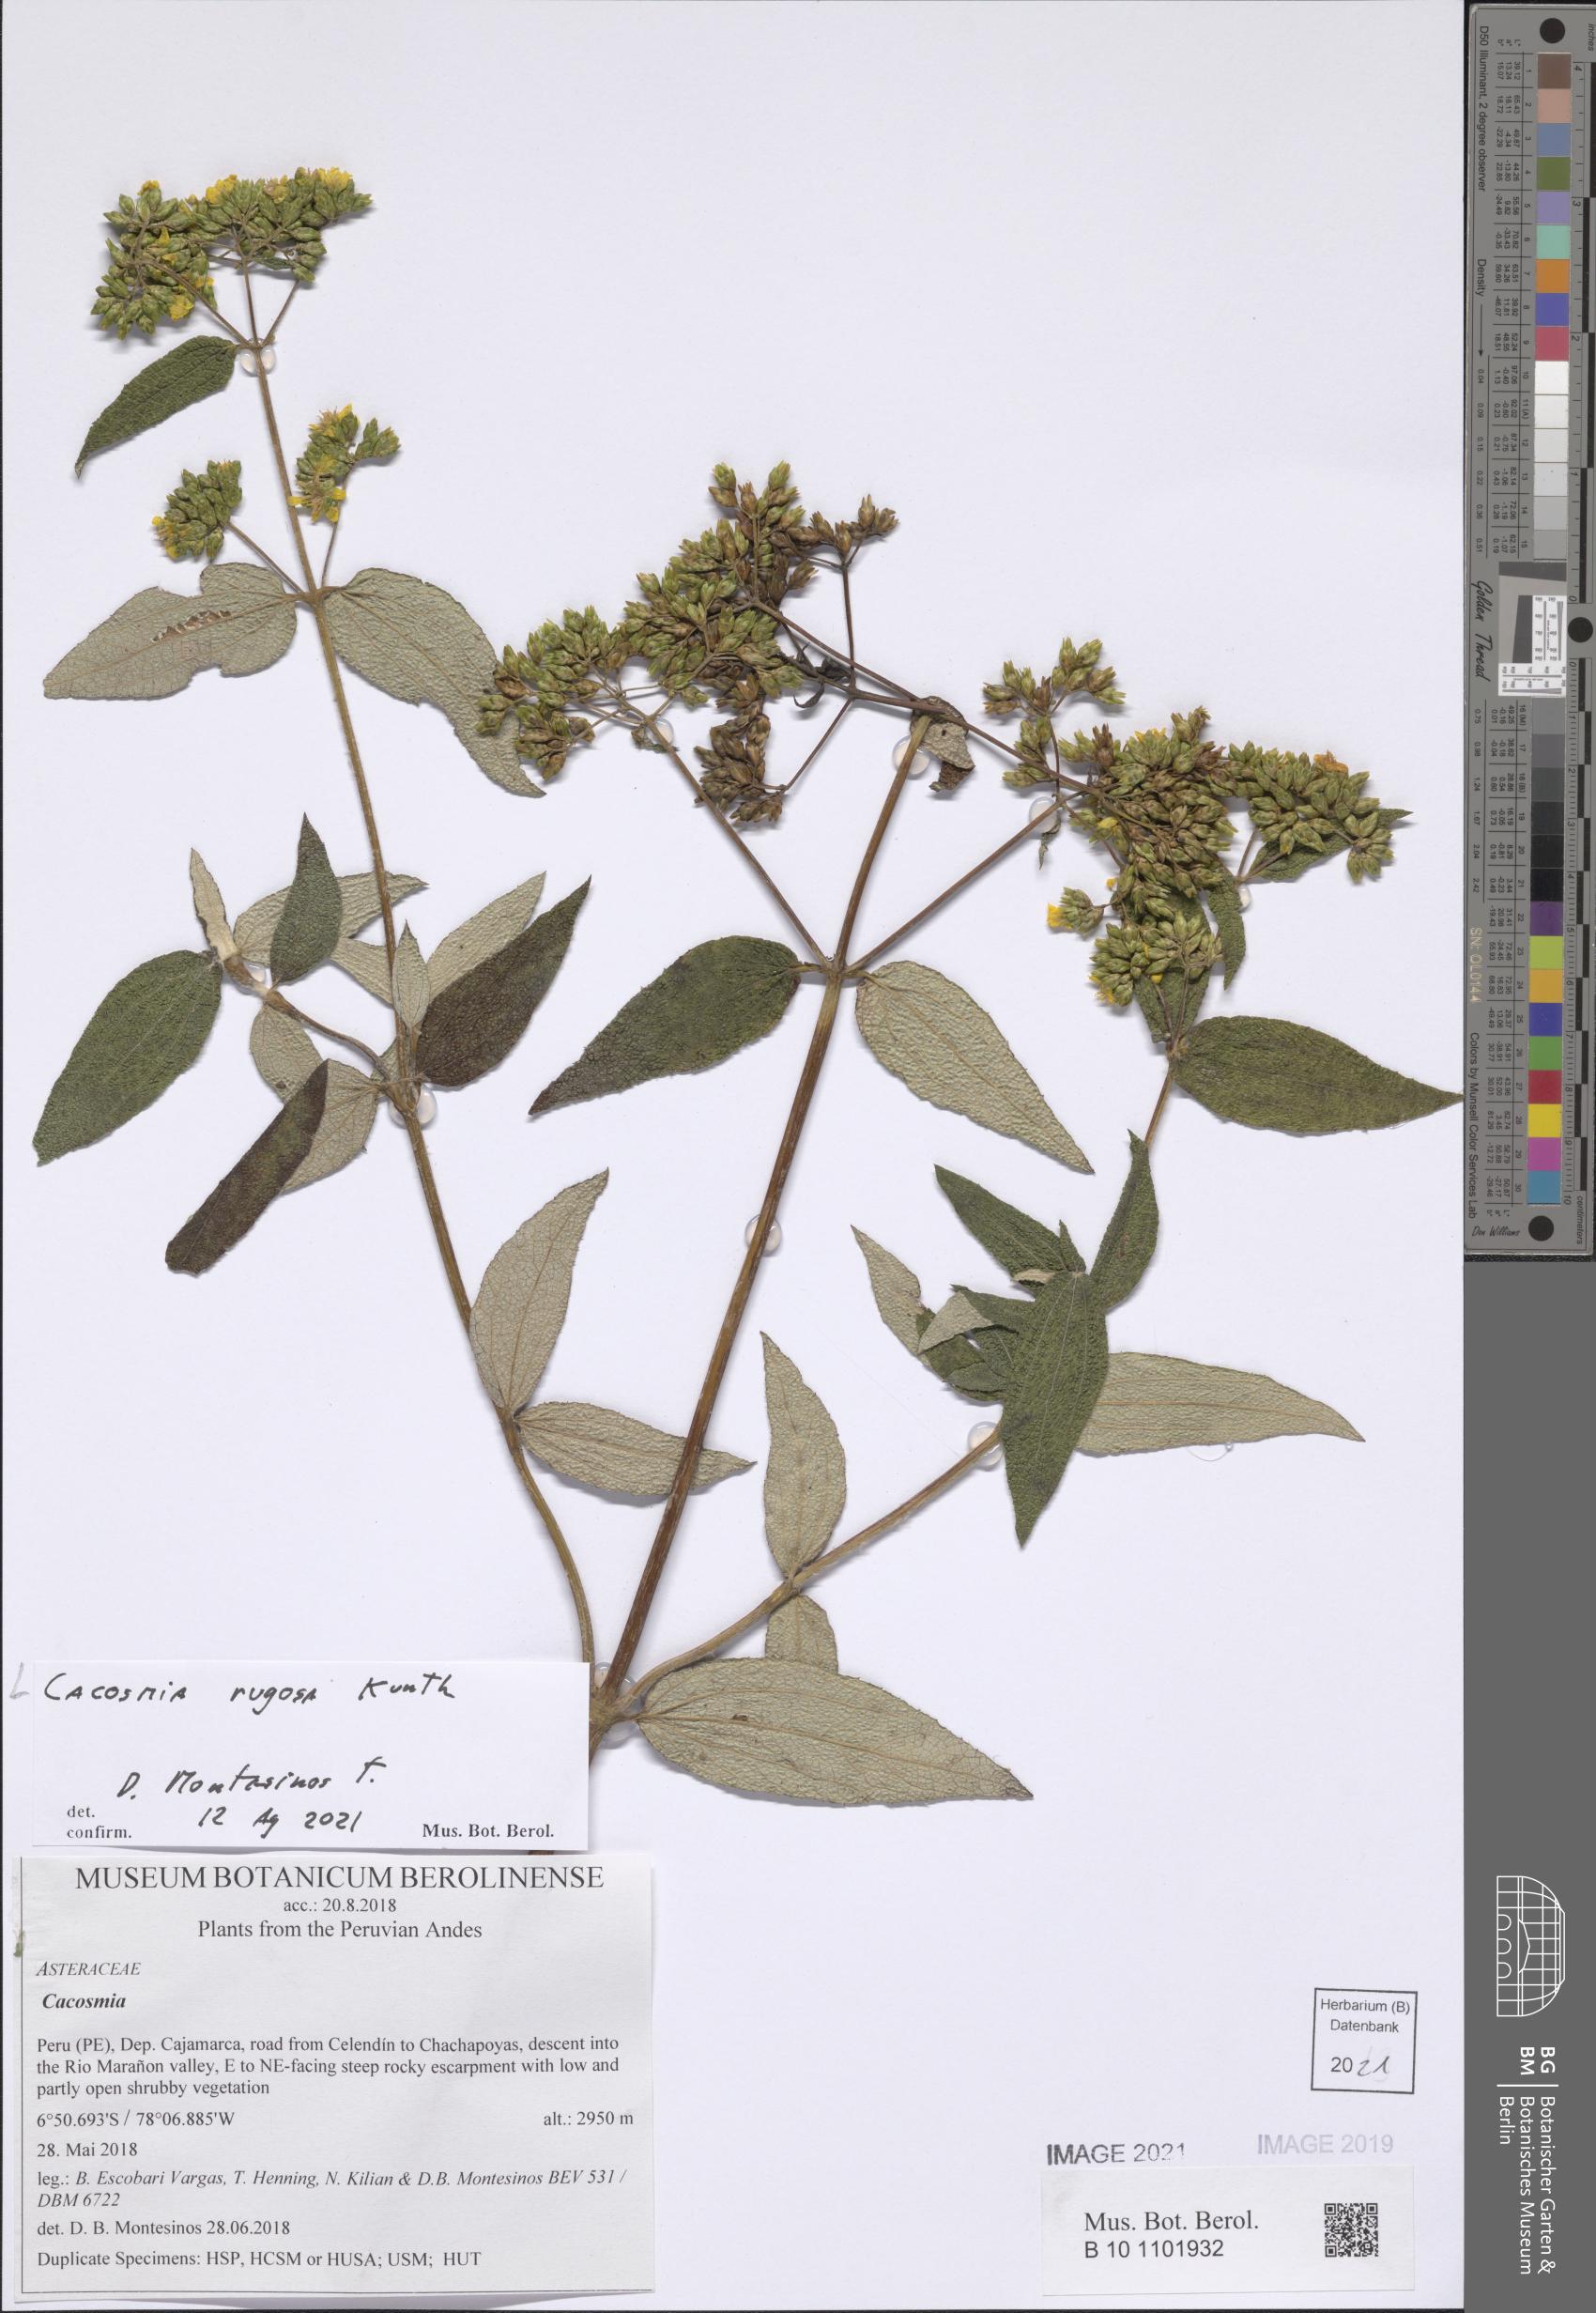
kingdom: Plantae
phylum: Tracheophyta
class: Magnoliopsida
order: Asterales
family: Asteraceae
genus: Cacosmia
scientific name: Cacosmia rugosa
